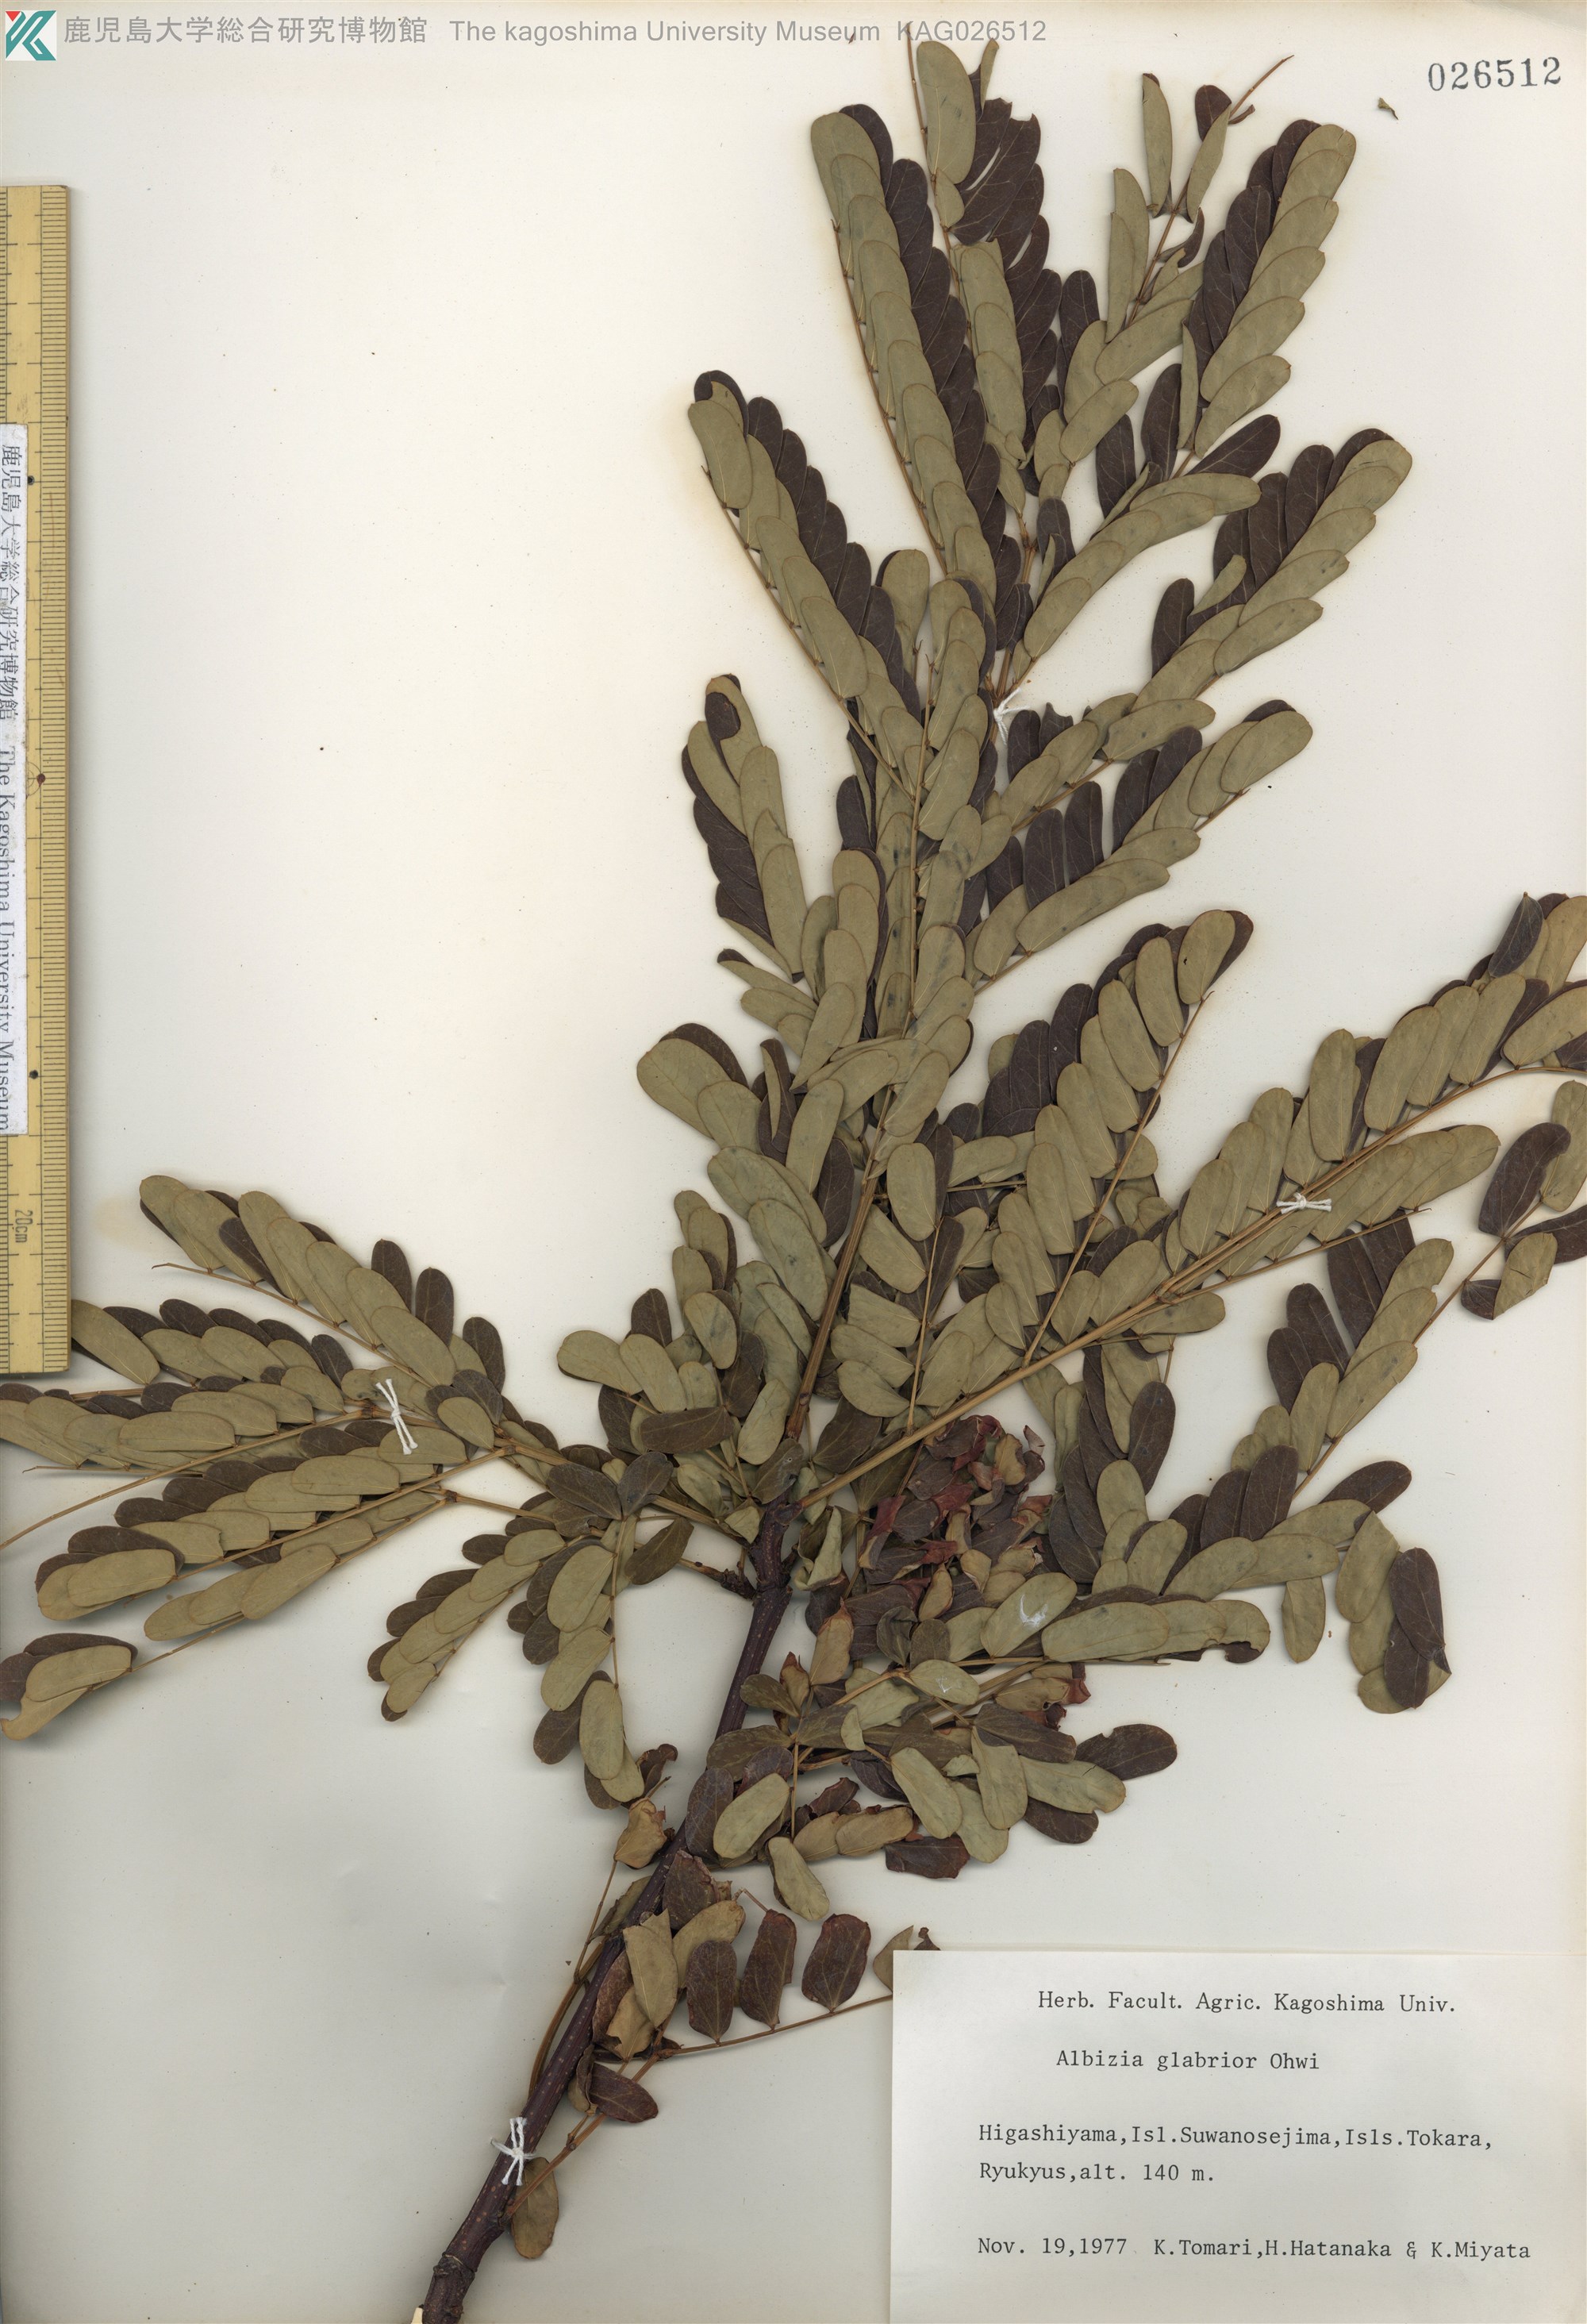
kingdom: Plantae
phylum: Tracheophyta
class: Magnoliopsida
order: Fabales
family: Fabaceae
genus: Albizia
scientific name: Albizia kalkora
